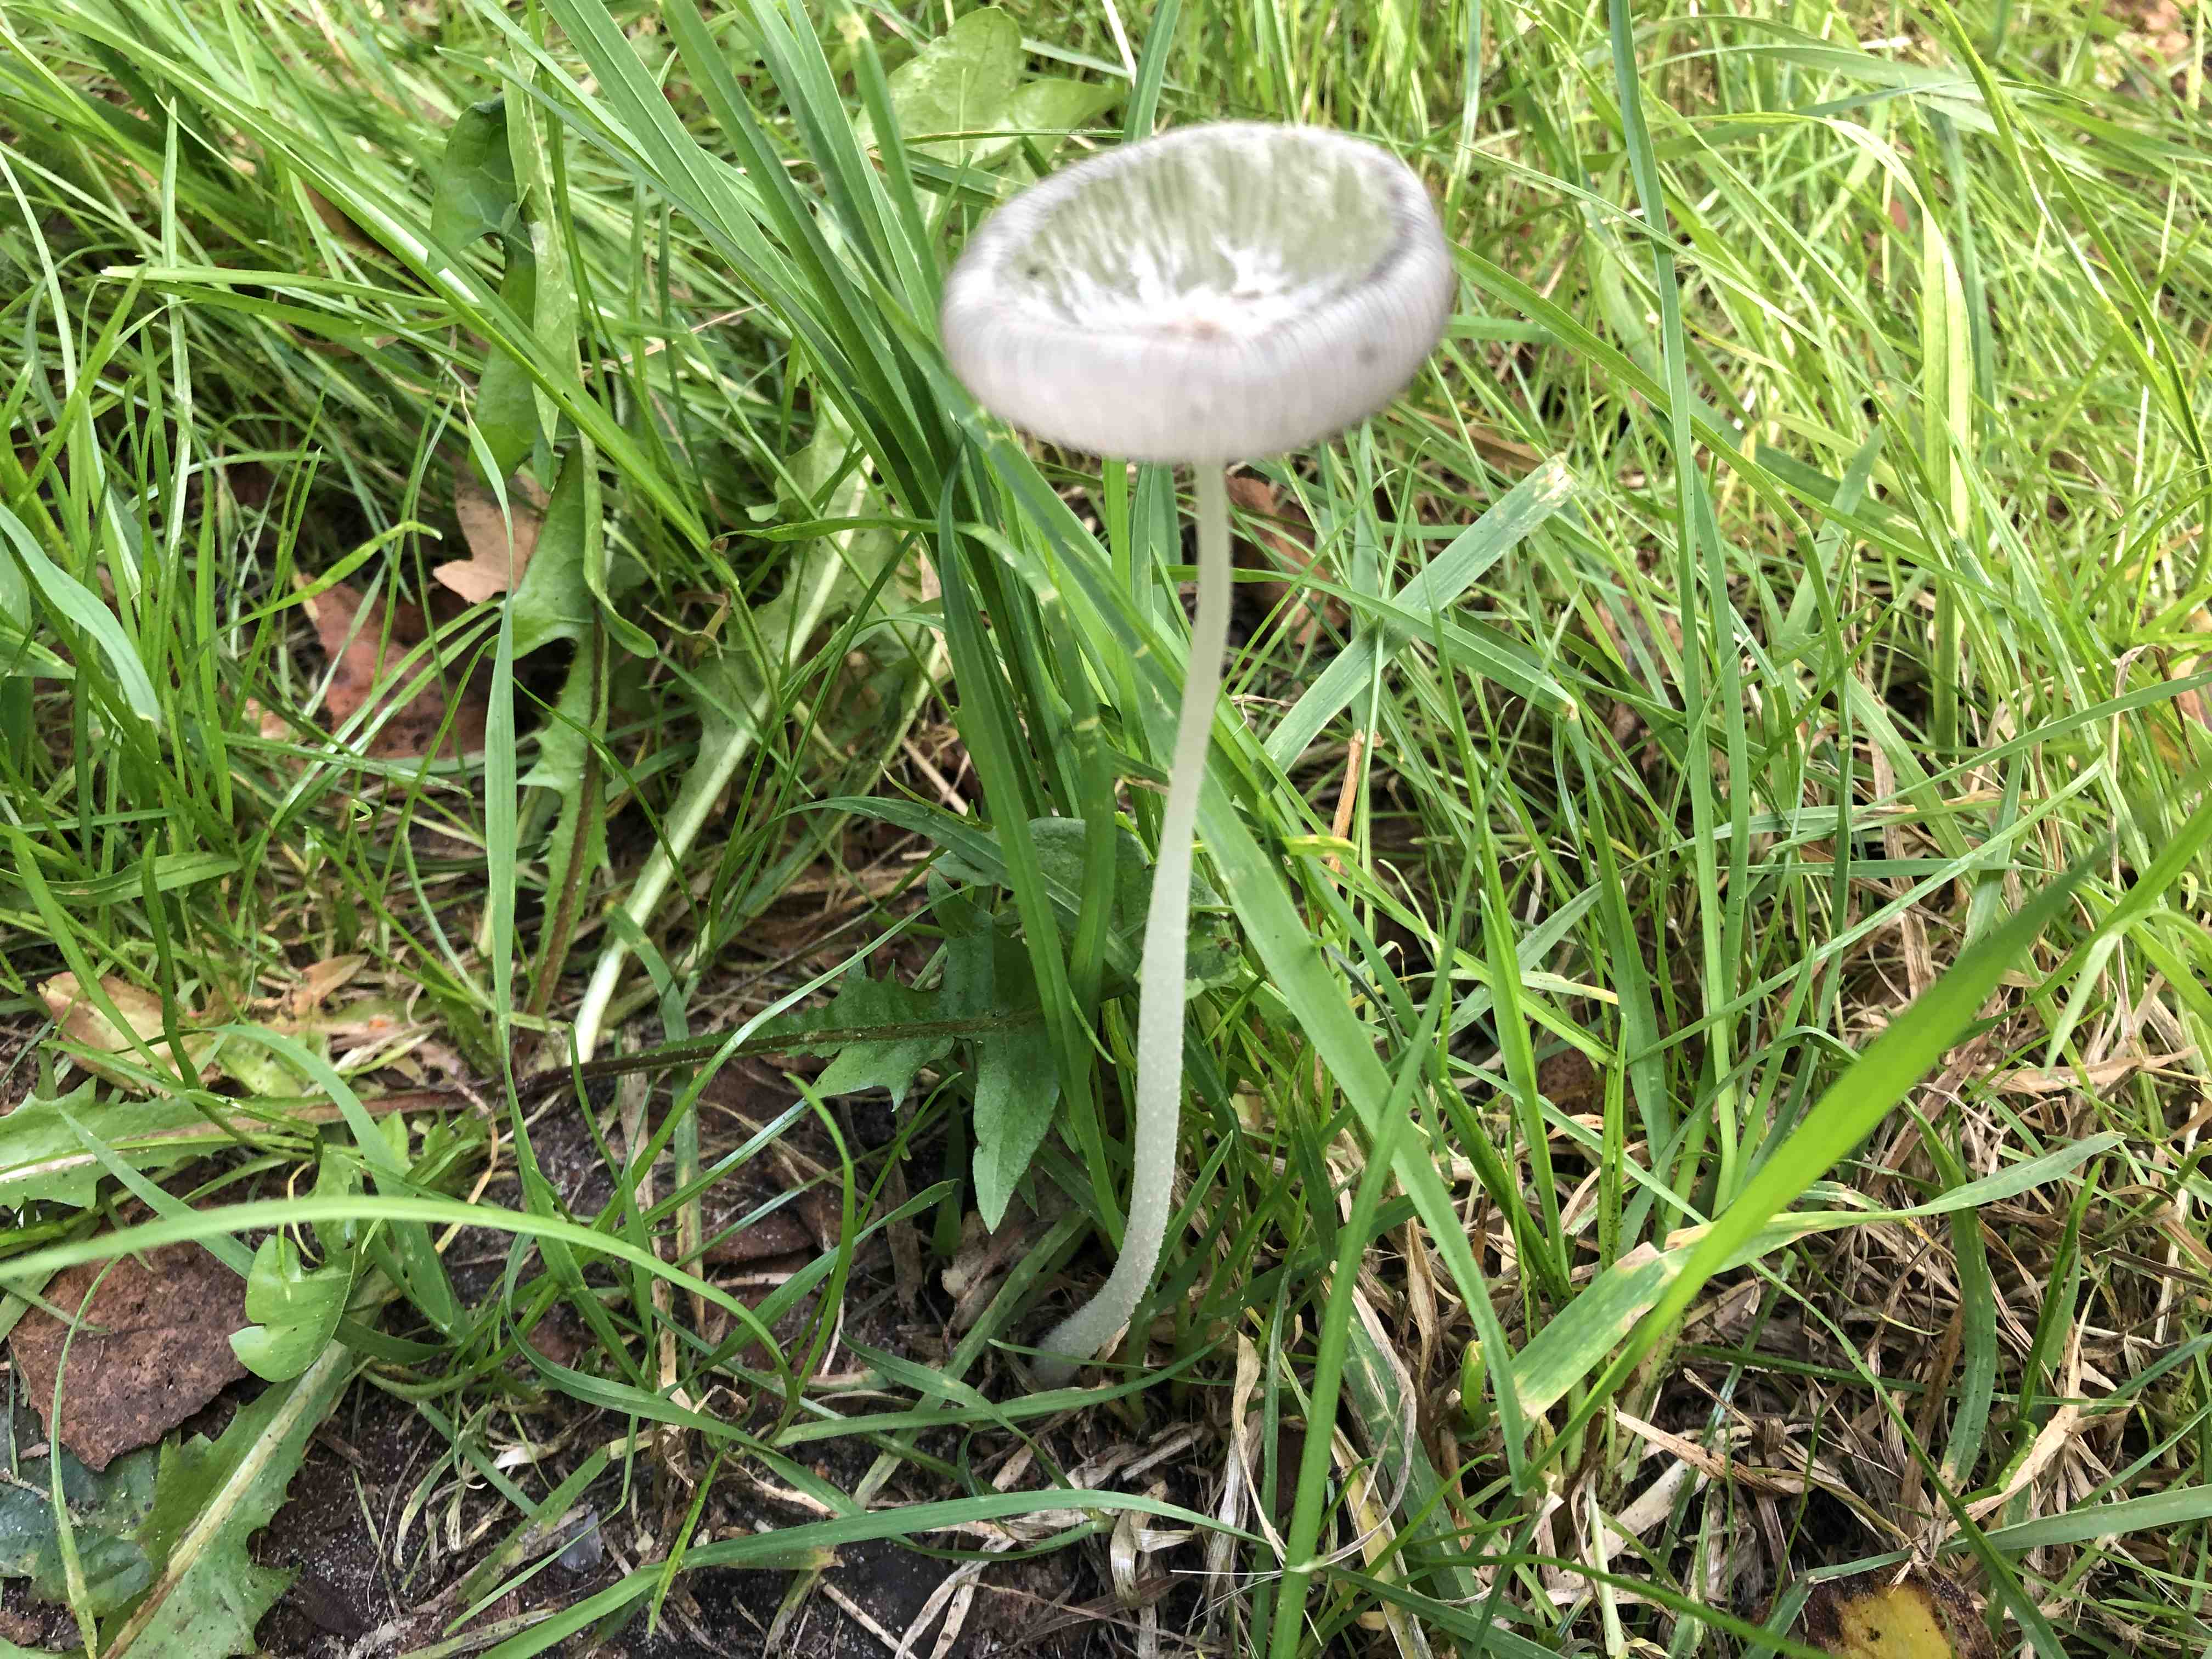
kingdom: Fungi
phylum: Basidiomycota
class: Agaricomycetes
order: Agaricales
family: Psathyrellaceae
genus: Coprinopsis
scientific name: Coprinopsis lagopus
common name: dunstokket blækhat
